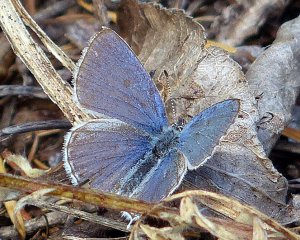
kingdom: Animalia
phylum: Arthropoda
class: Insecta
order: Lepidoptera
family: Lycaenidae
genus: Elkalyce
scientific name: Elkalyce amyntula
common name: Western Tailed-Blue
